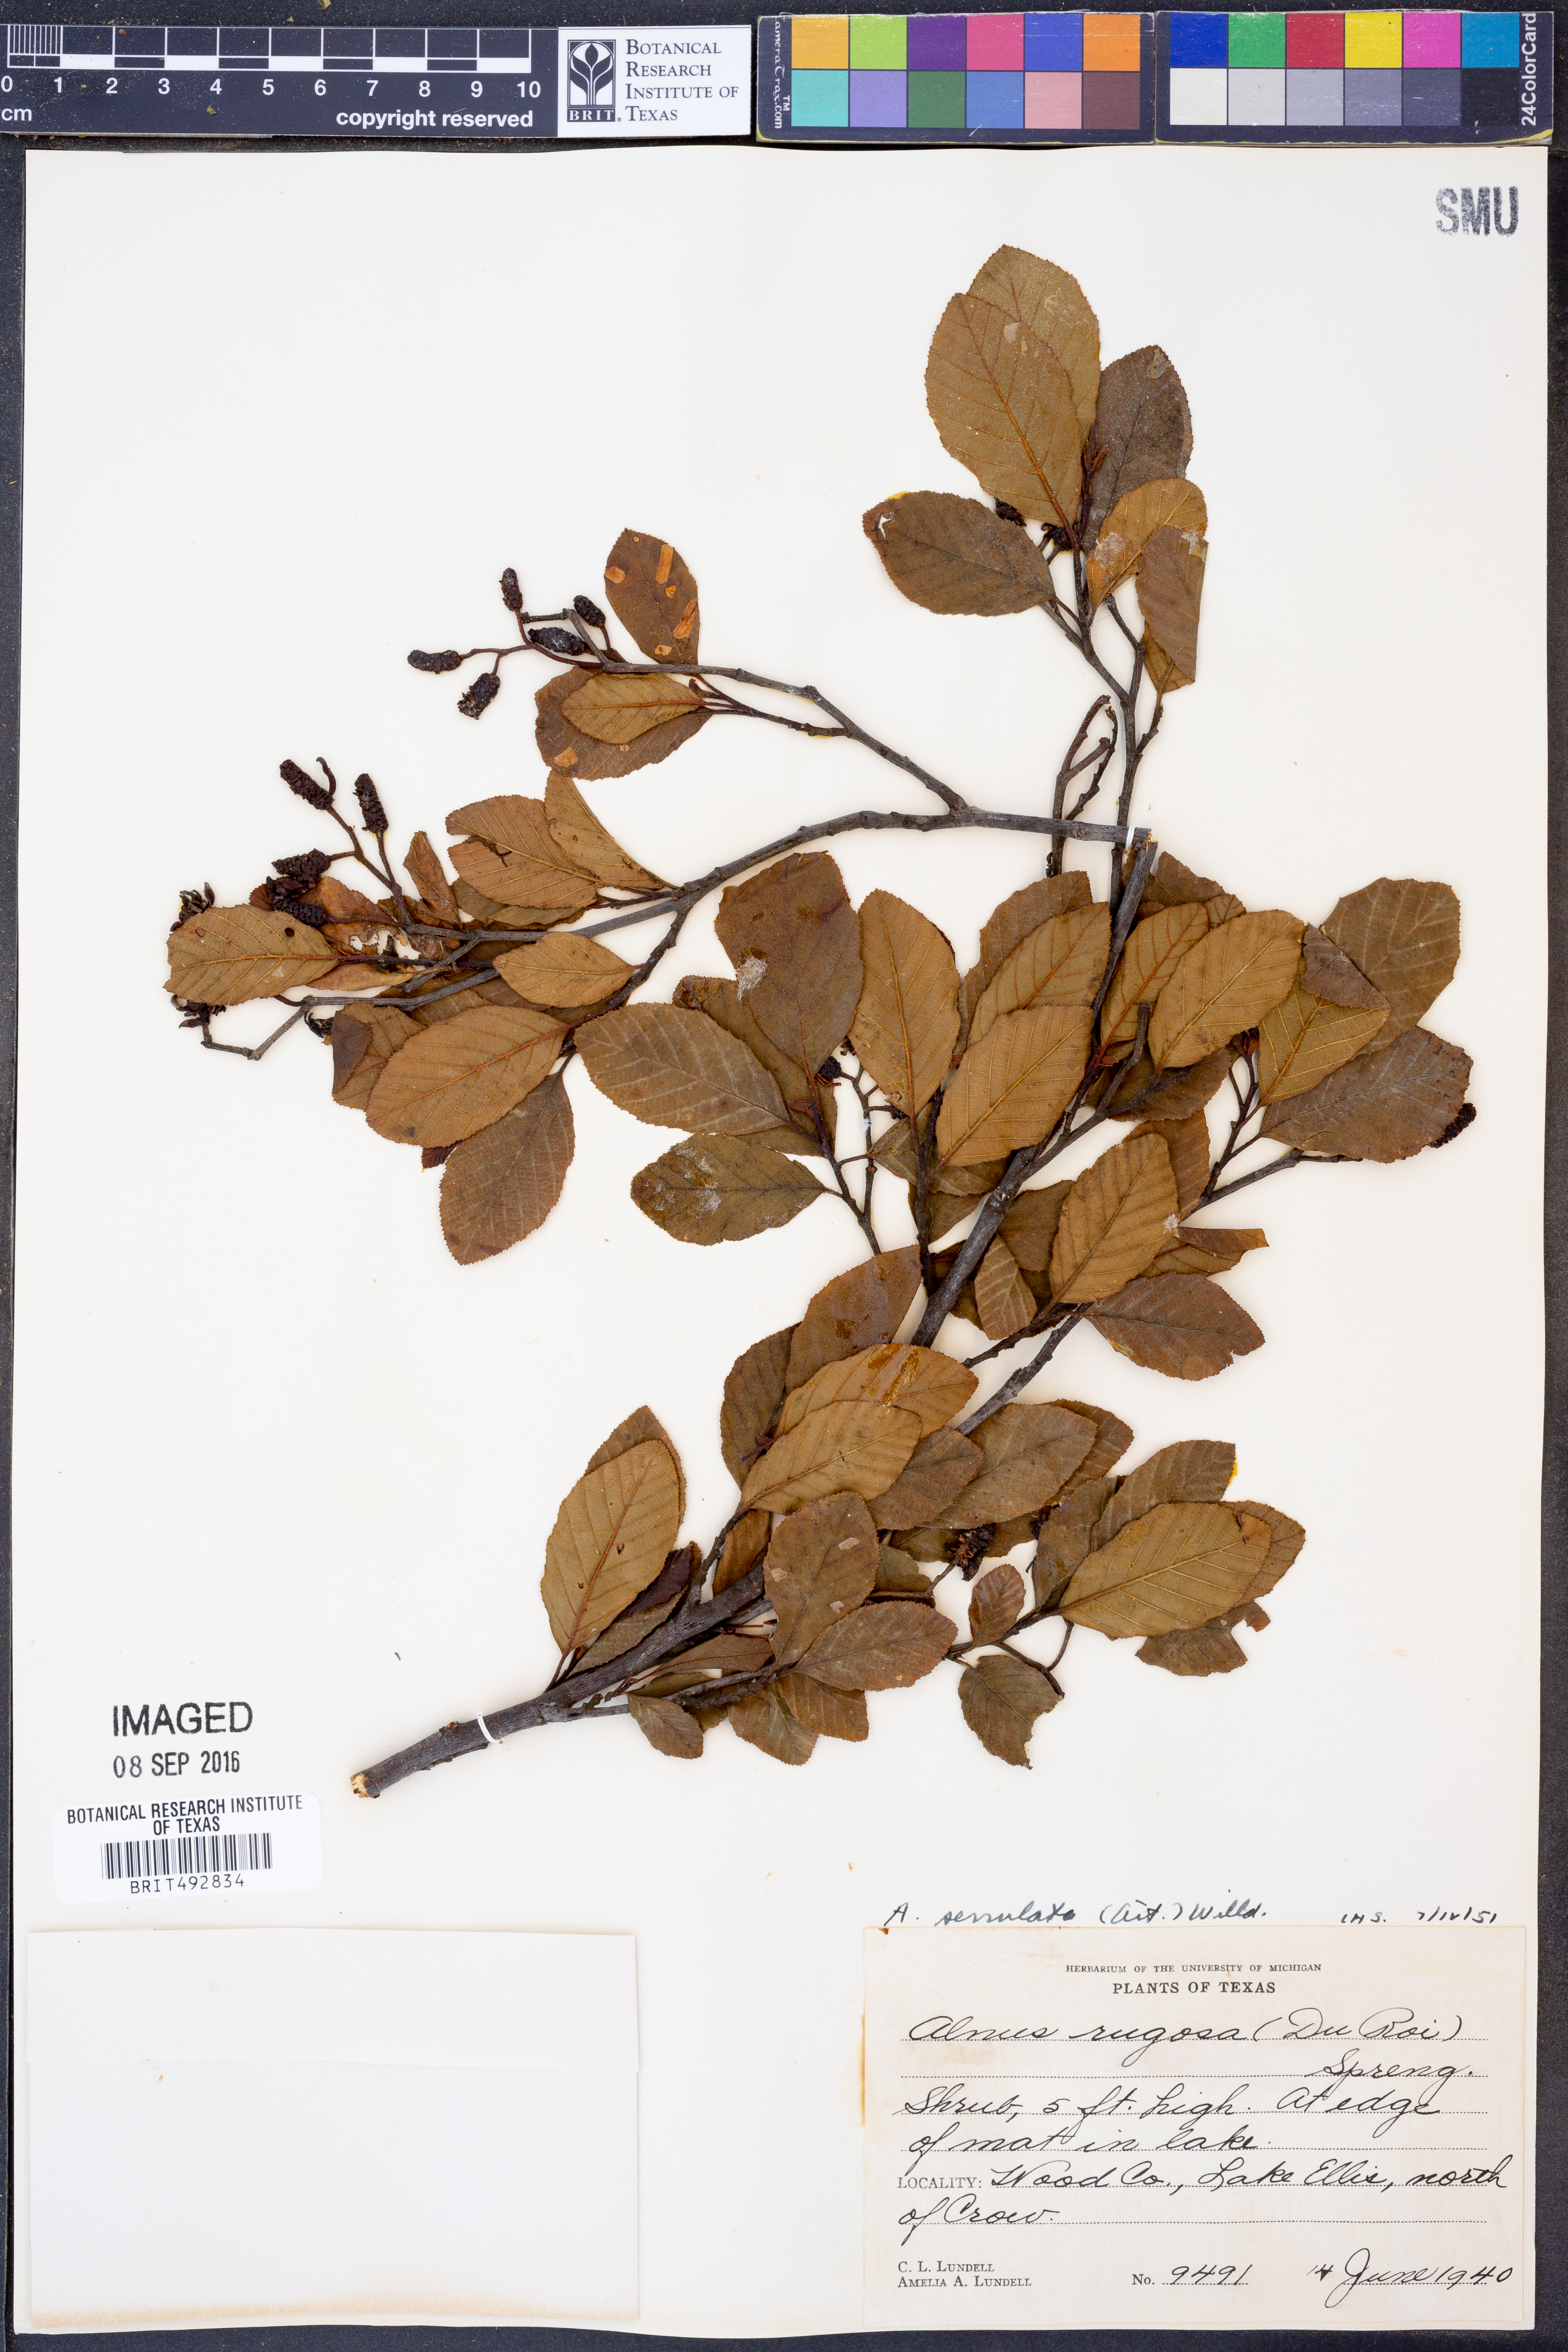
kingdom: Plantae
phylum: Tracheophyta
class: Magnoliopsida
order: Fagales
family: Betulaceae
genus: Alnus
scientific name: Alnus serrulata
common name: Hazel alder
